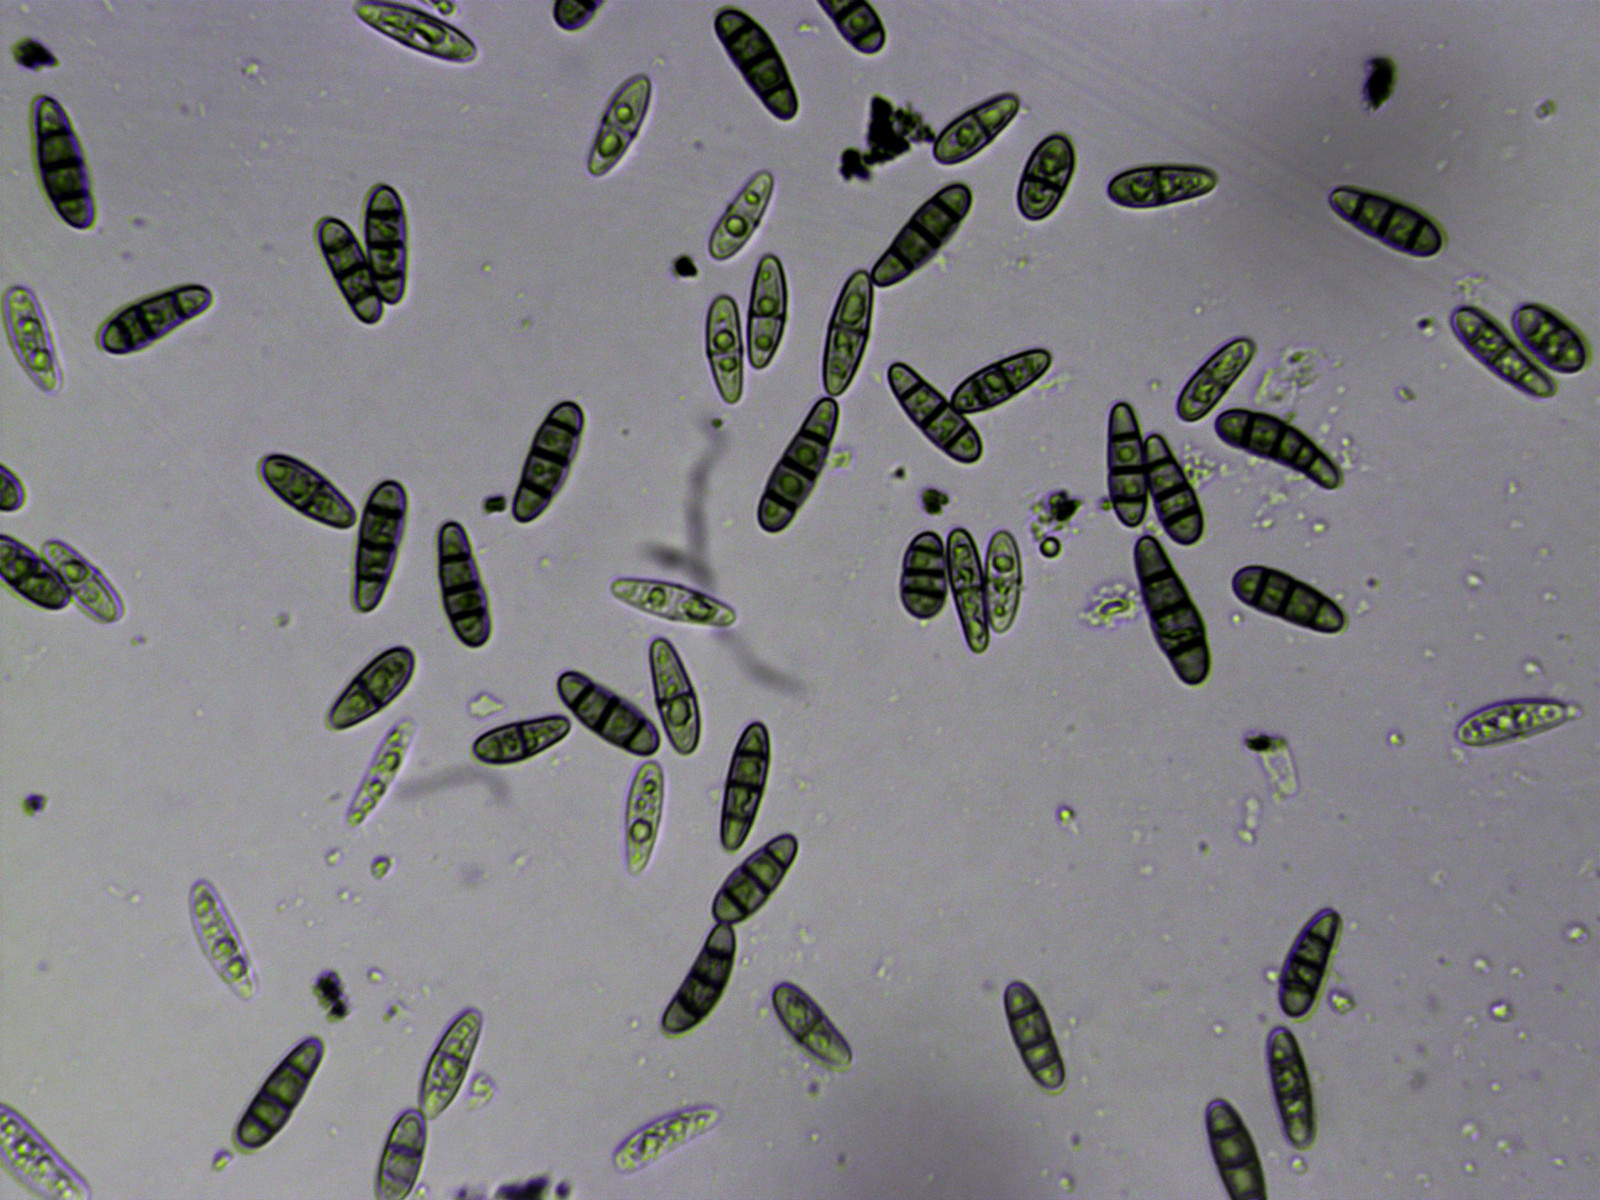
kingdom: Fungi
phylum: Ascomycota
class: Dothideomycetes
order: Hysteriales
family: Hysteriaceae
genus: Hysterium
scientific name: Hysterium acuminatum
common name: almindelig kulmund
